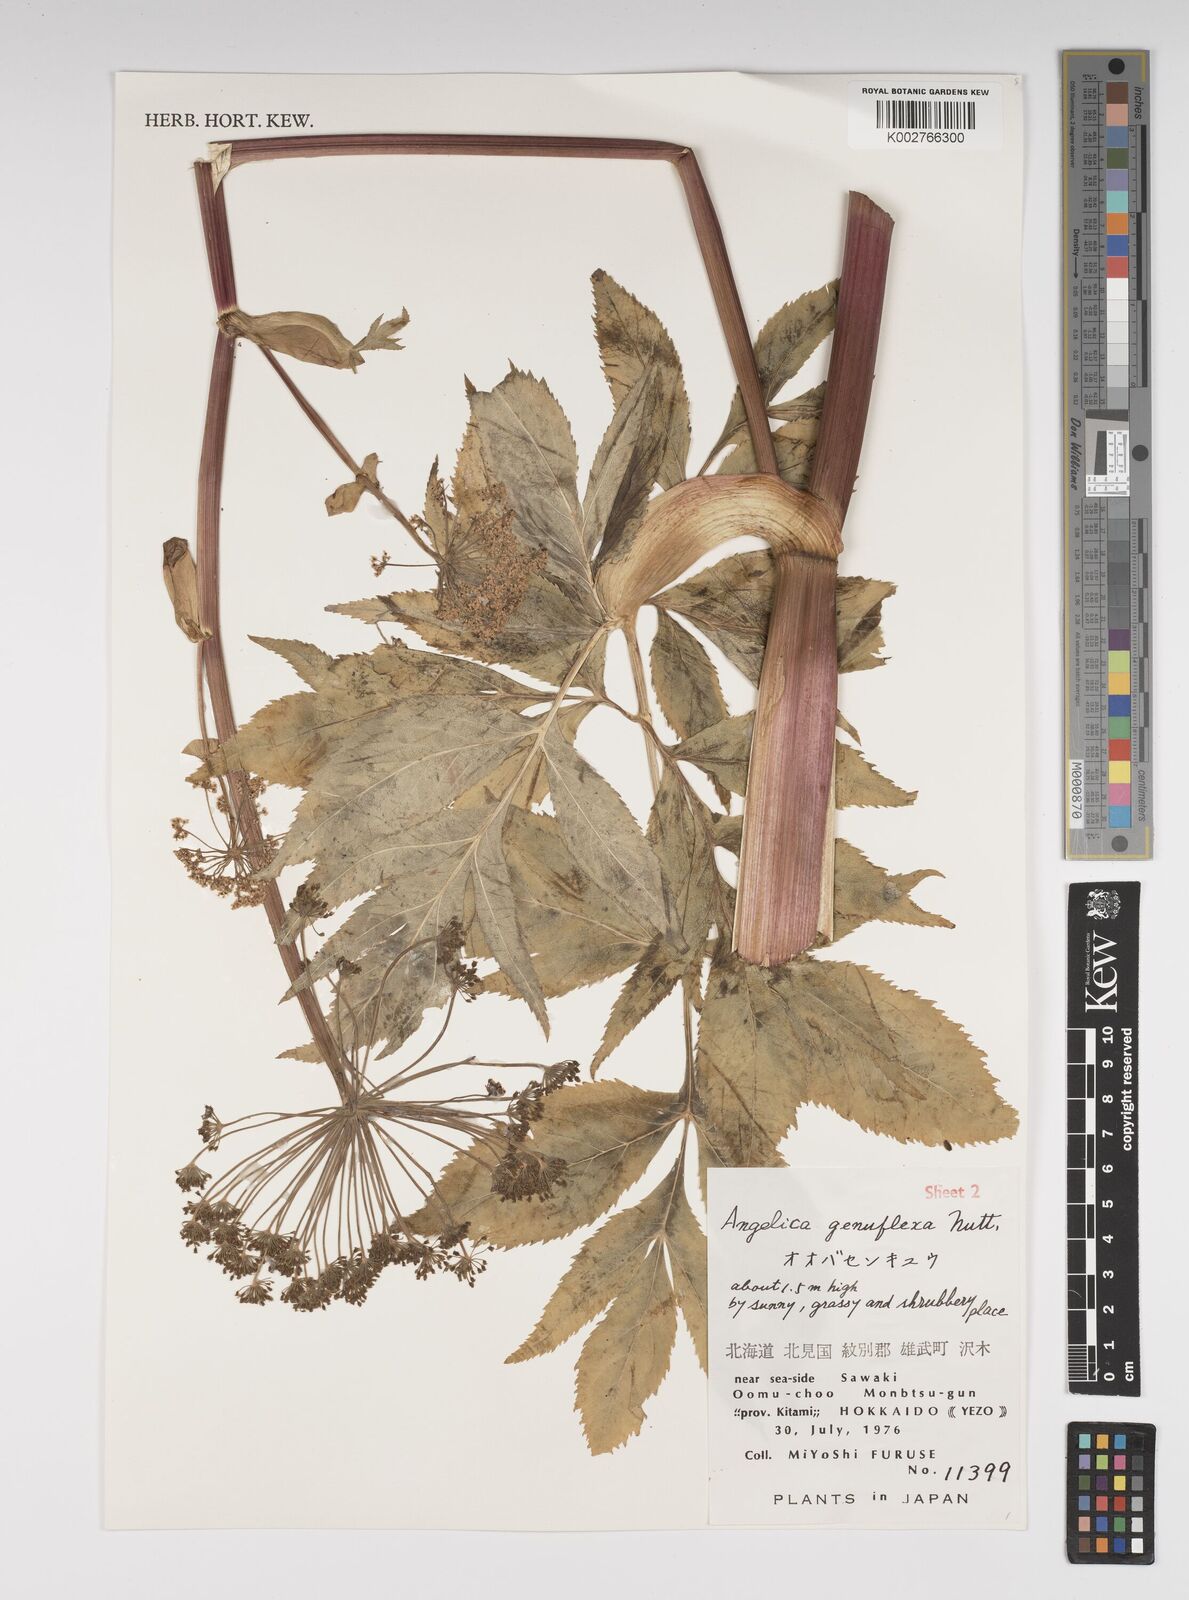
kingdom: Plantae
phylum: Tracheophyta
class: Magnoliopsida
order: Apiales
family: Apiaceae
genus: Angelica
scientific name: Angelica genuflexa
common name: Kneeling angelica
